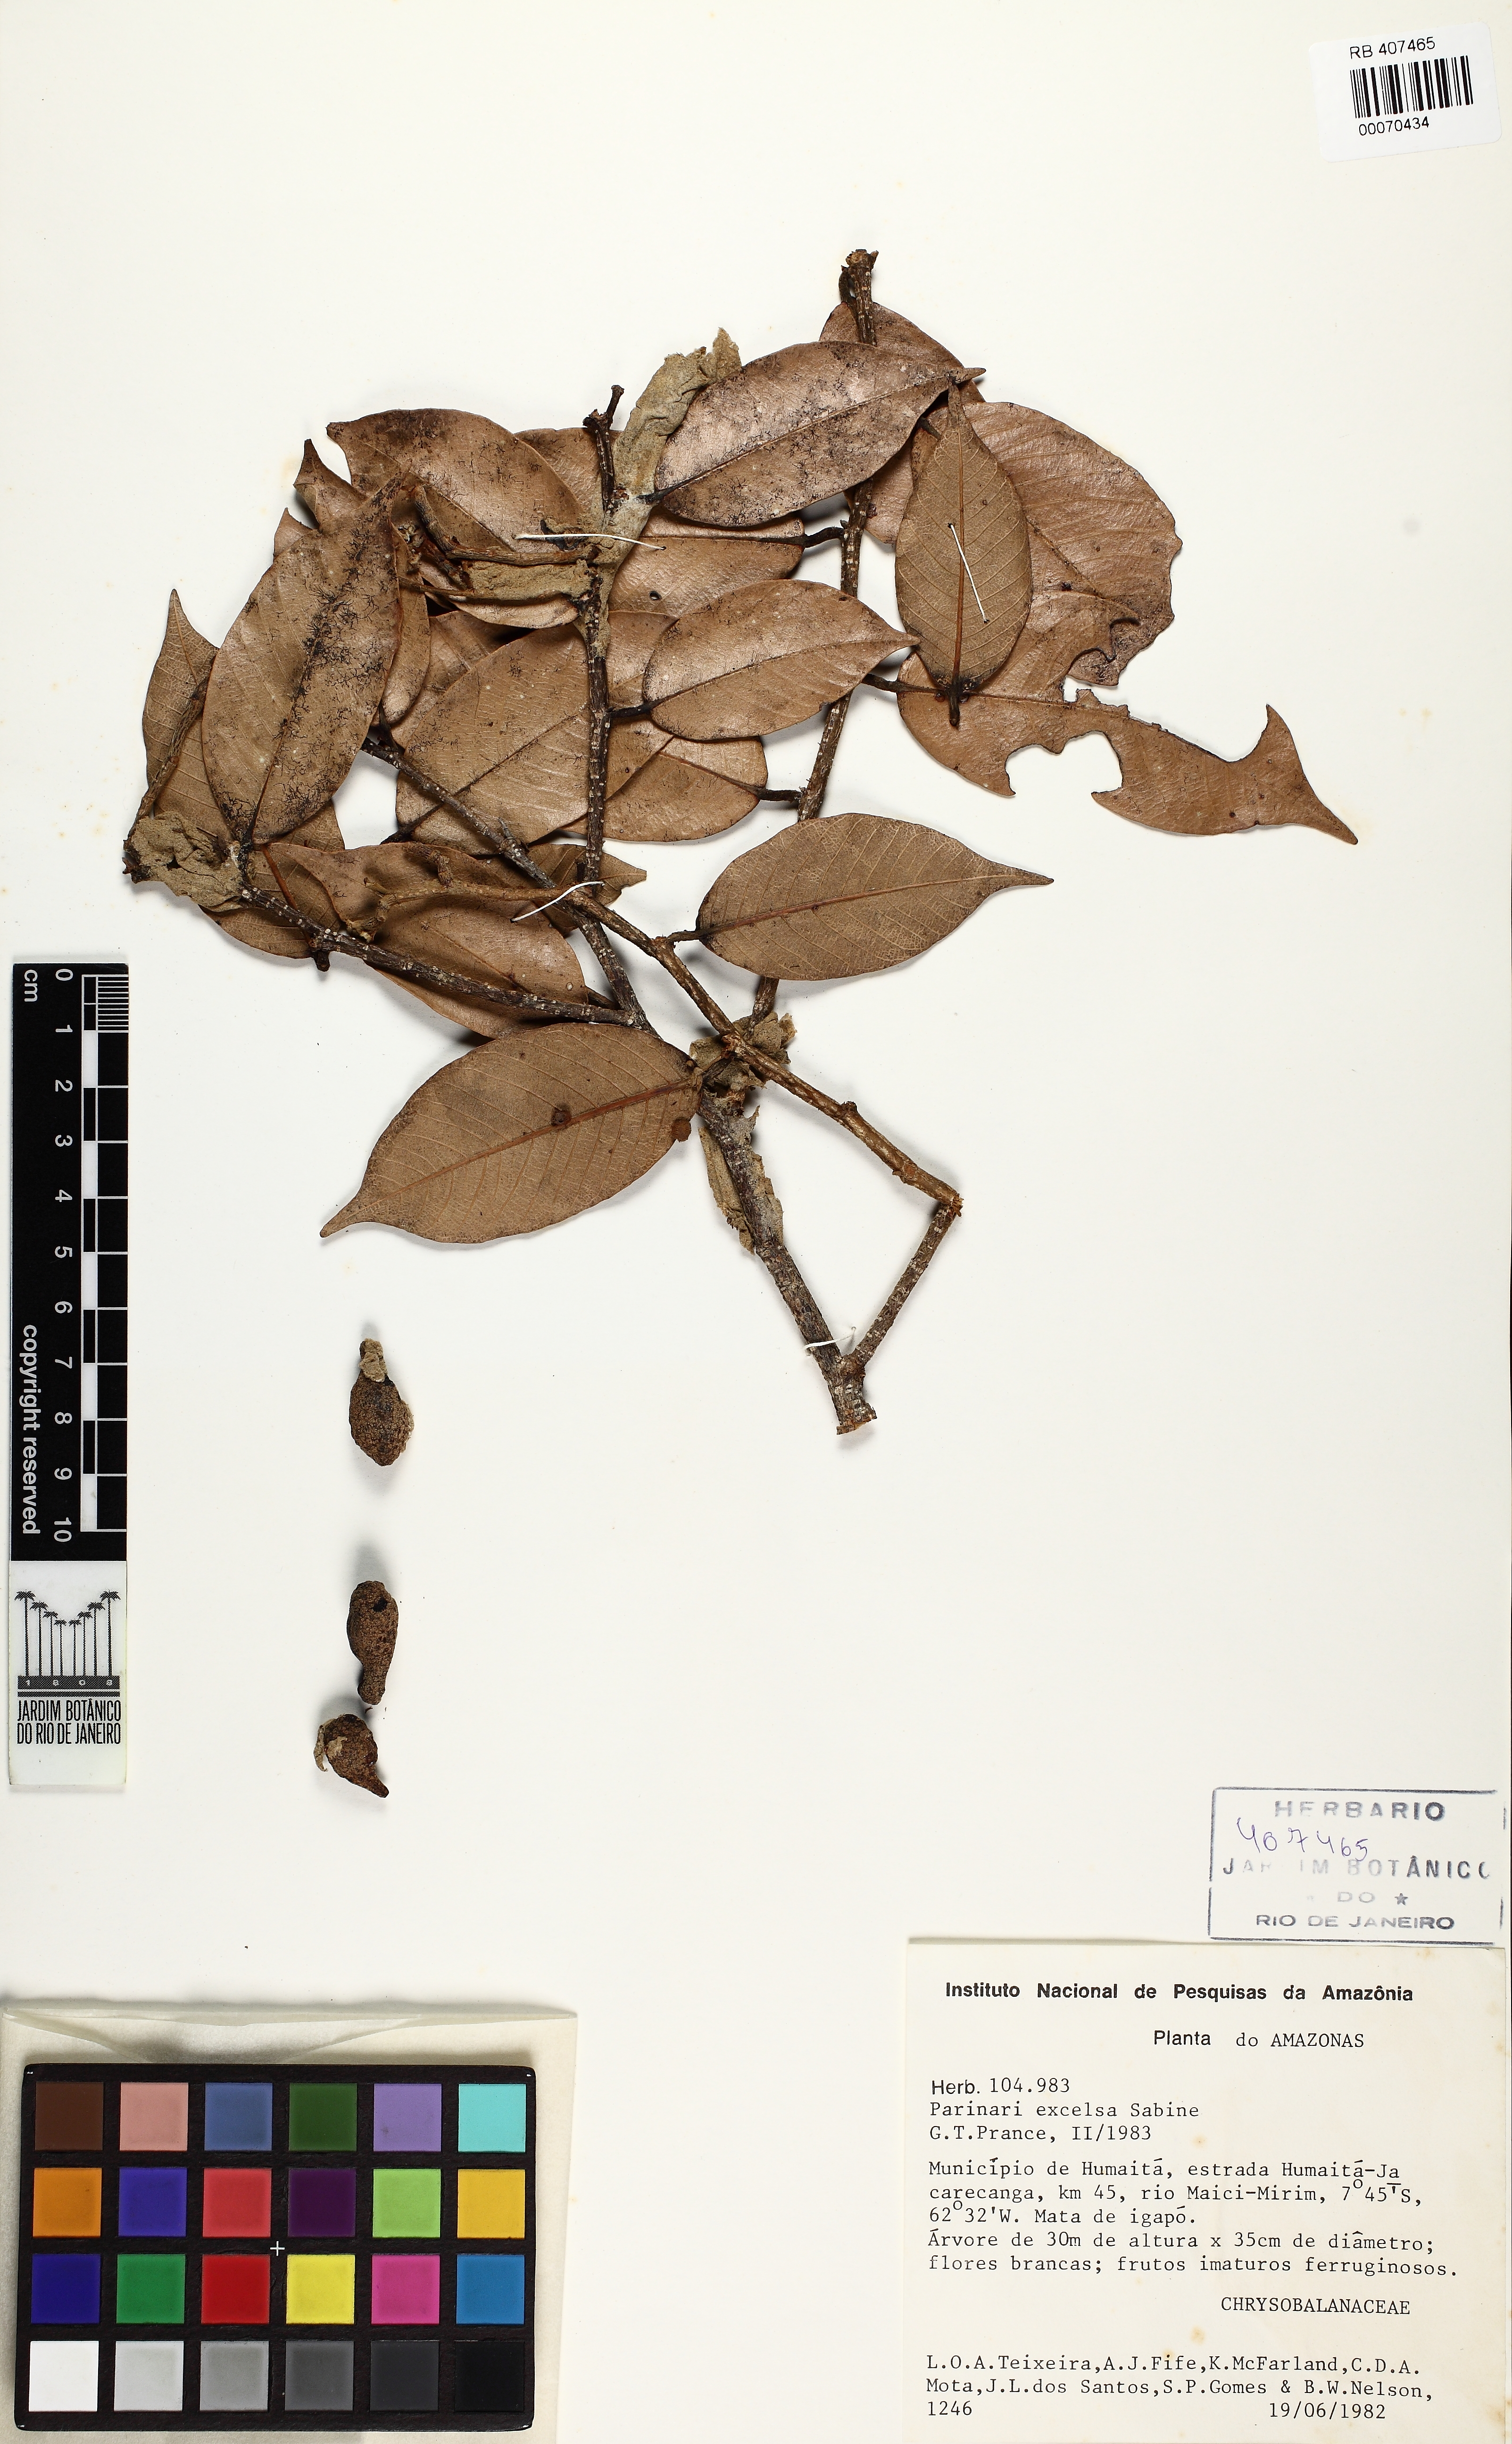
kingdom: Plantae
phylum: Tracheophyta
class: Magnoliopsida
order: Malpighiales
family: Chrysobalanaceae
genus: Parinari
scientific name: Parinari excelsa
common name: Guinea-plum
